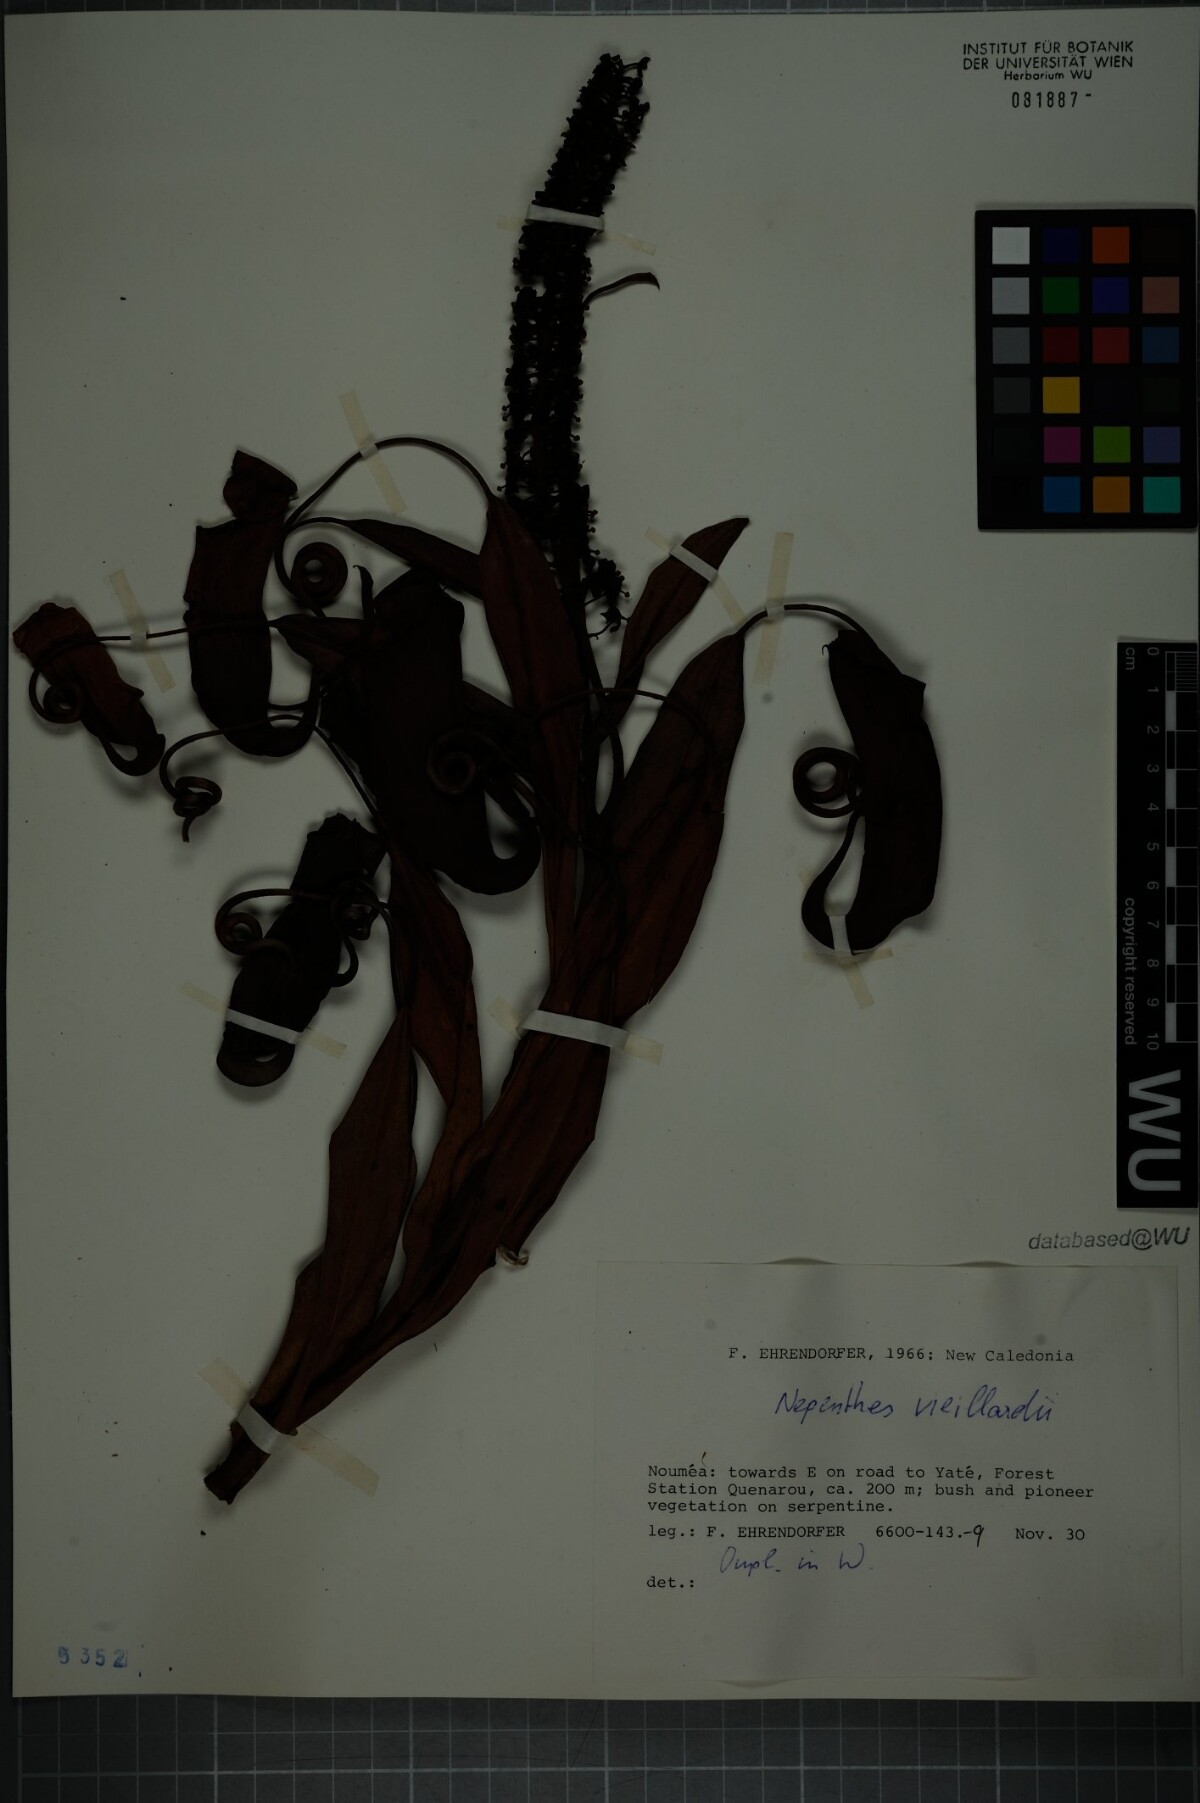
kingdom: Plantae
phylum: Tracheophyta
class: Magnoliopsida
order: Caryophyllales
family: Nepenthaceae
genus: Nepenthes
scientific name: Nepenthes vieillardii
